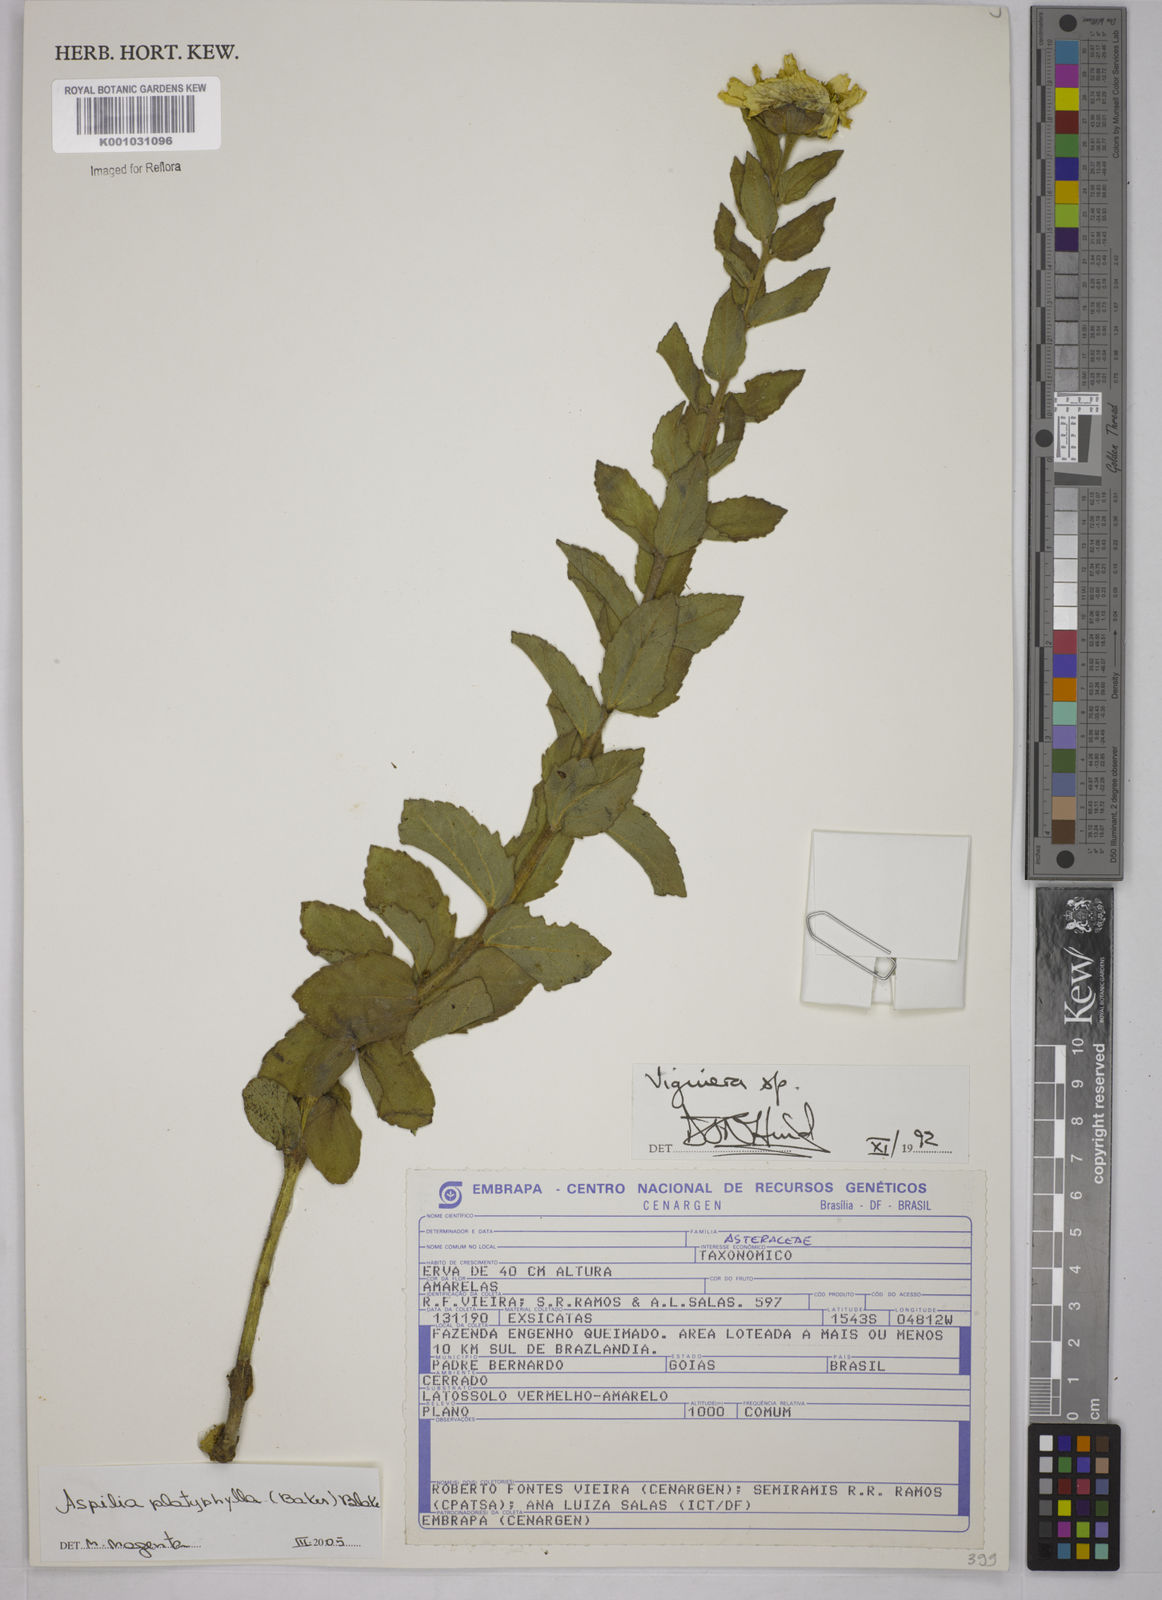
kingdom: Plantae
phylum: Tracheophyta
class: Magnoliopsida
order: Asterales
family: Asteraceae
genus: Aspilia
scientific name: Aspilia
